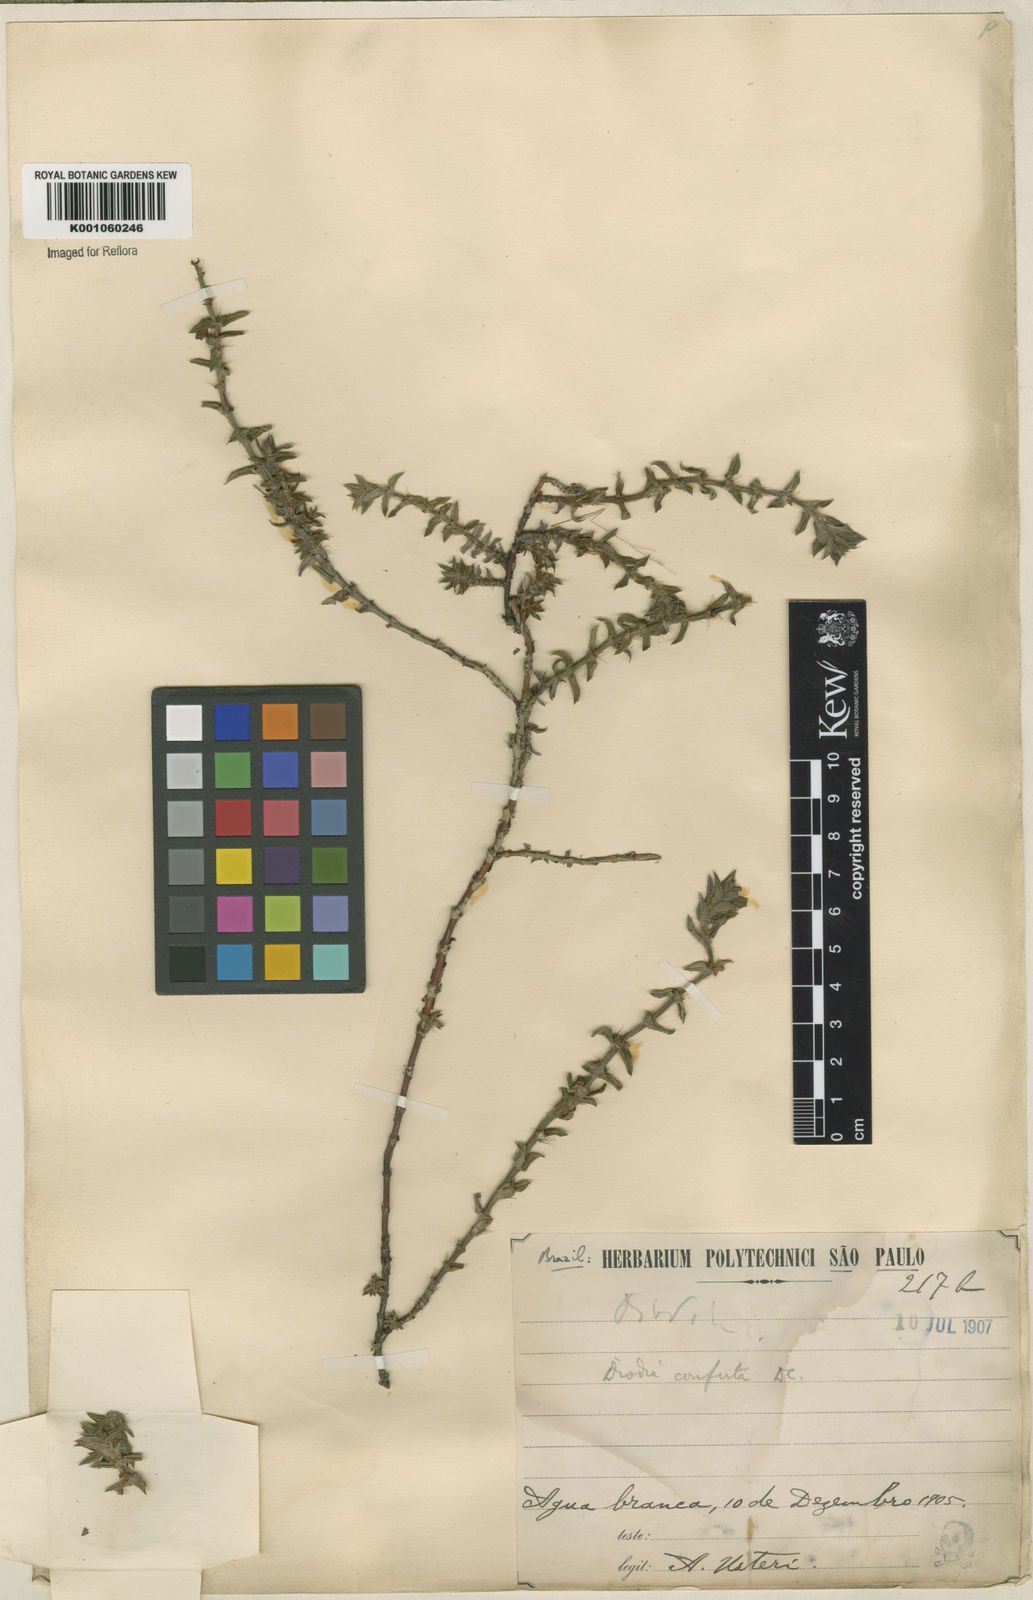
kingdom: Plantae
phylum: Tracheophyta
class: Magnoliopsida
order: Gentianales
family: Rubiaceae
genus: Hexasepalum
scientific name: Hexasepalum apiculatum
